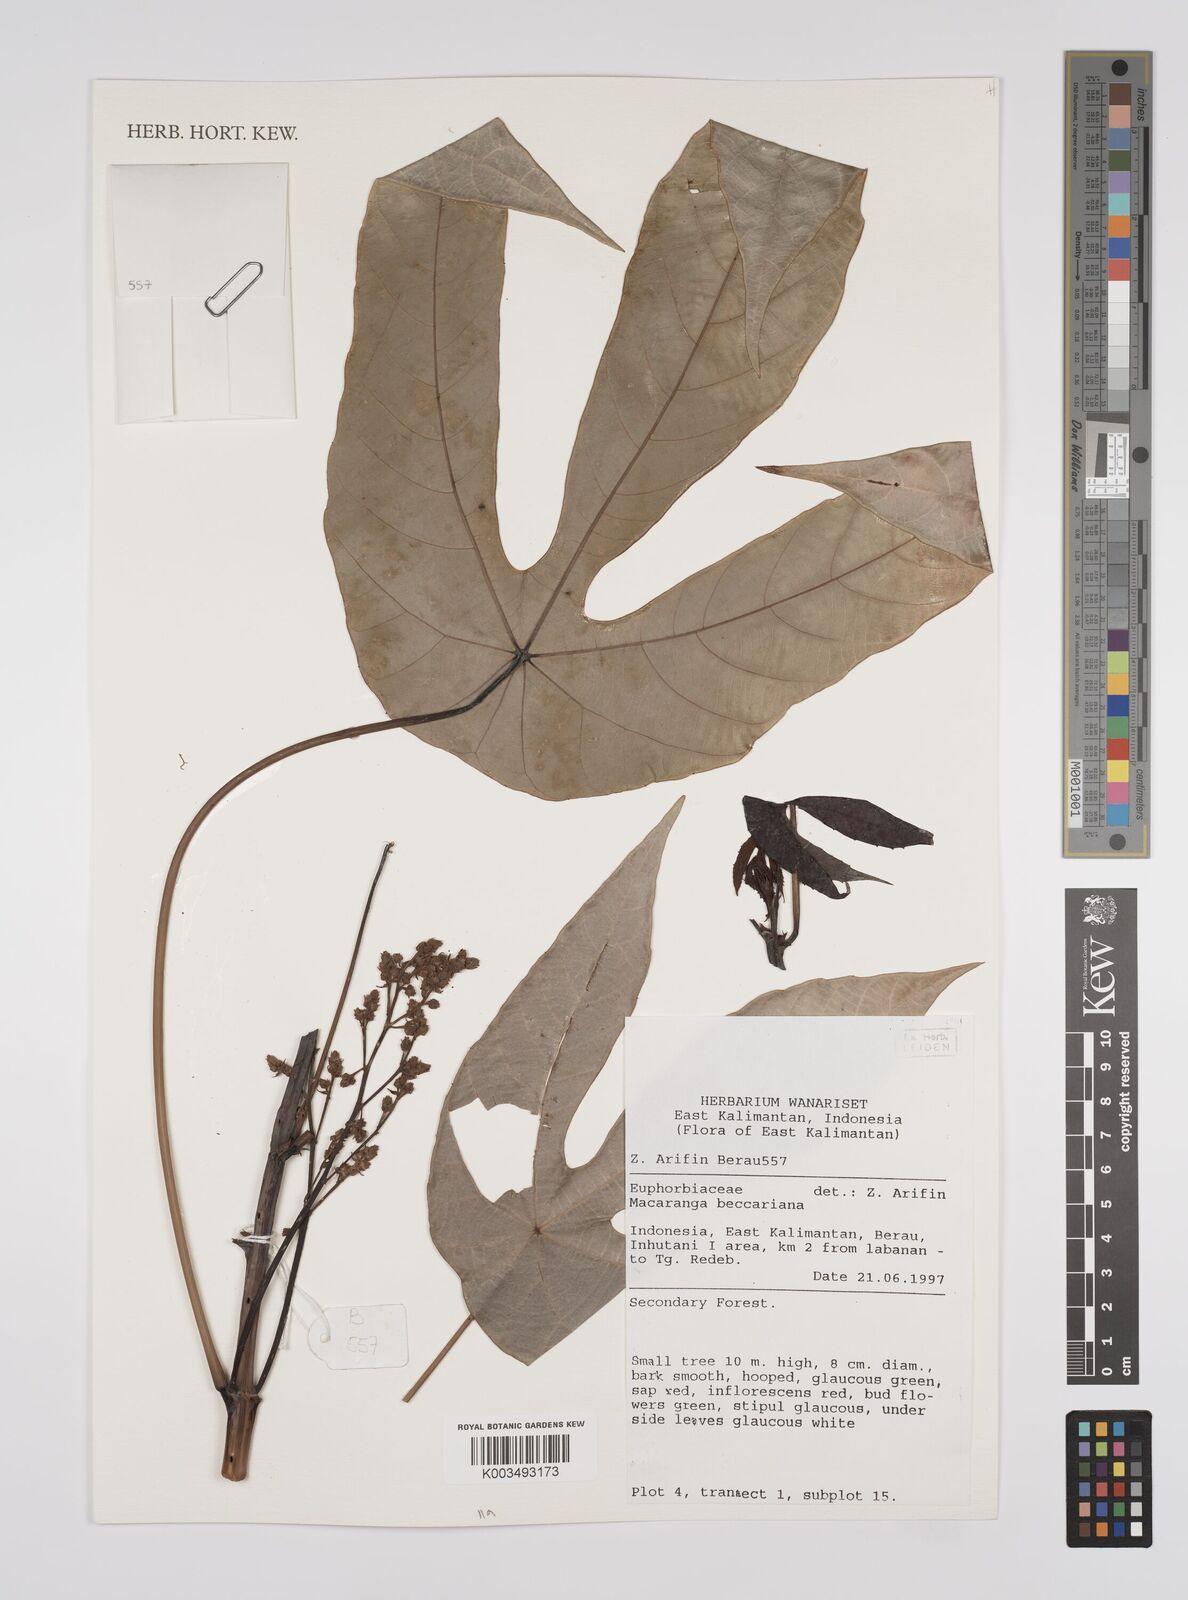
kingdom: Plantae
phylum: Tracheophyta
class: Magnoliopsida
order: Malpighiales
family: Euphorbiaceae
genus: Macaranga
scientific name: Macaranga beccariana
